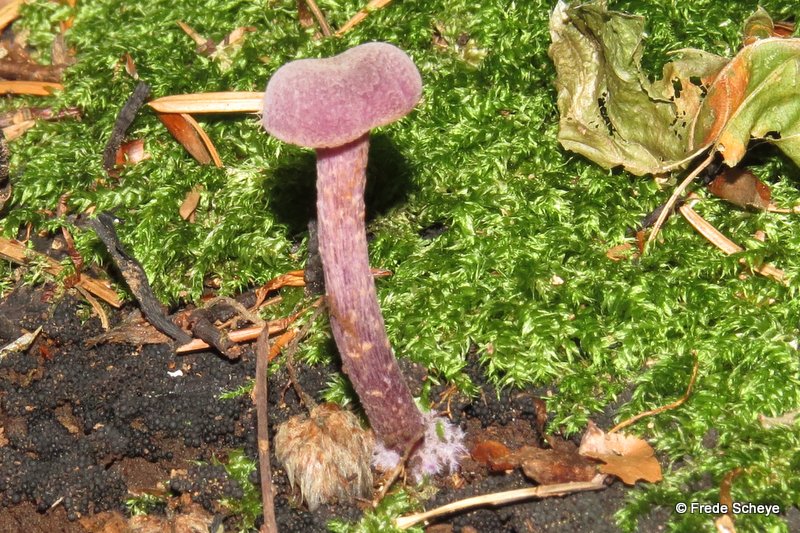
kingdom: Fungi
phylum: Basidiomycota
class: Agaricomycetes
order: Agaricales
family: Hydnangiaceae
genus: Laccaria
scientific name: Laccaria amethystina
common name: violet ametysthat
